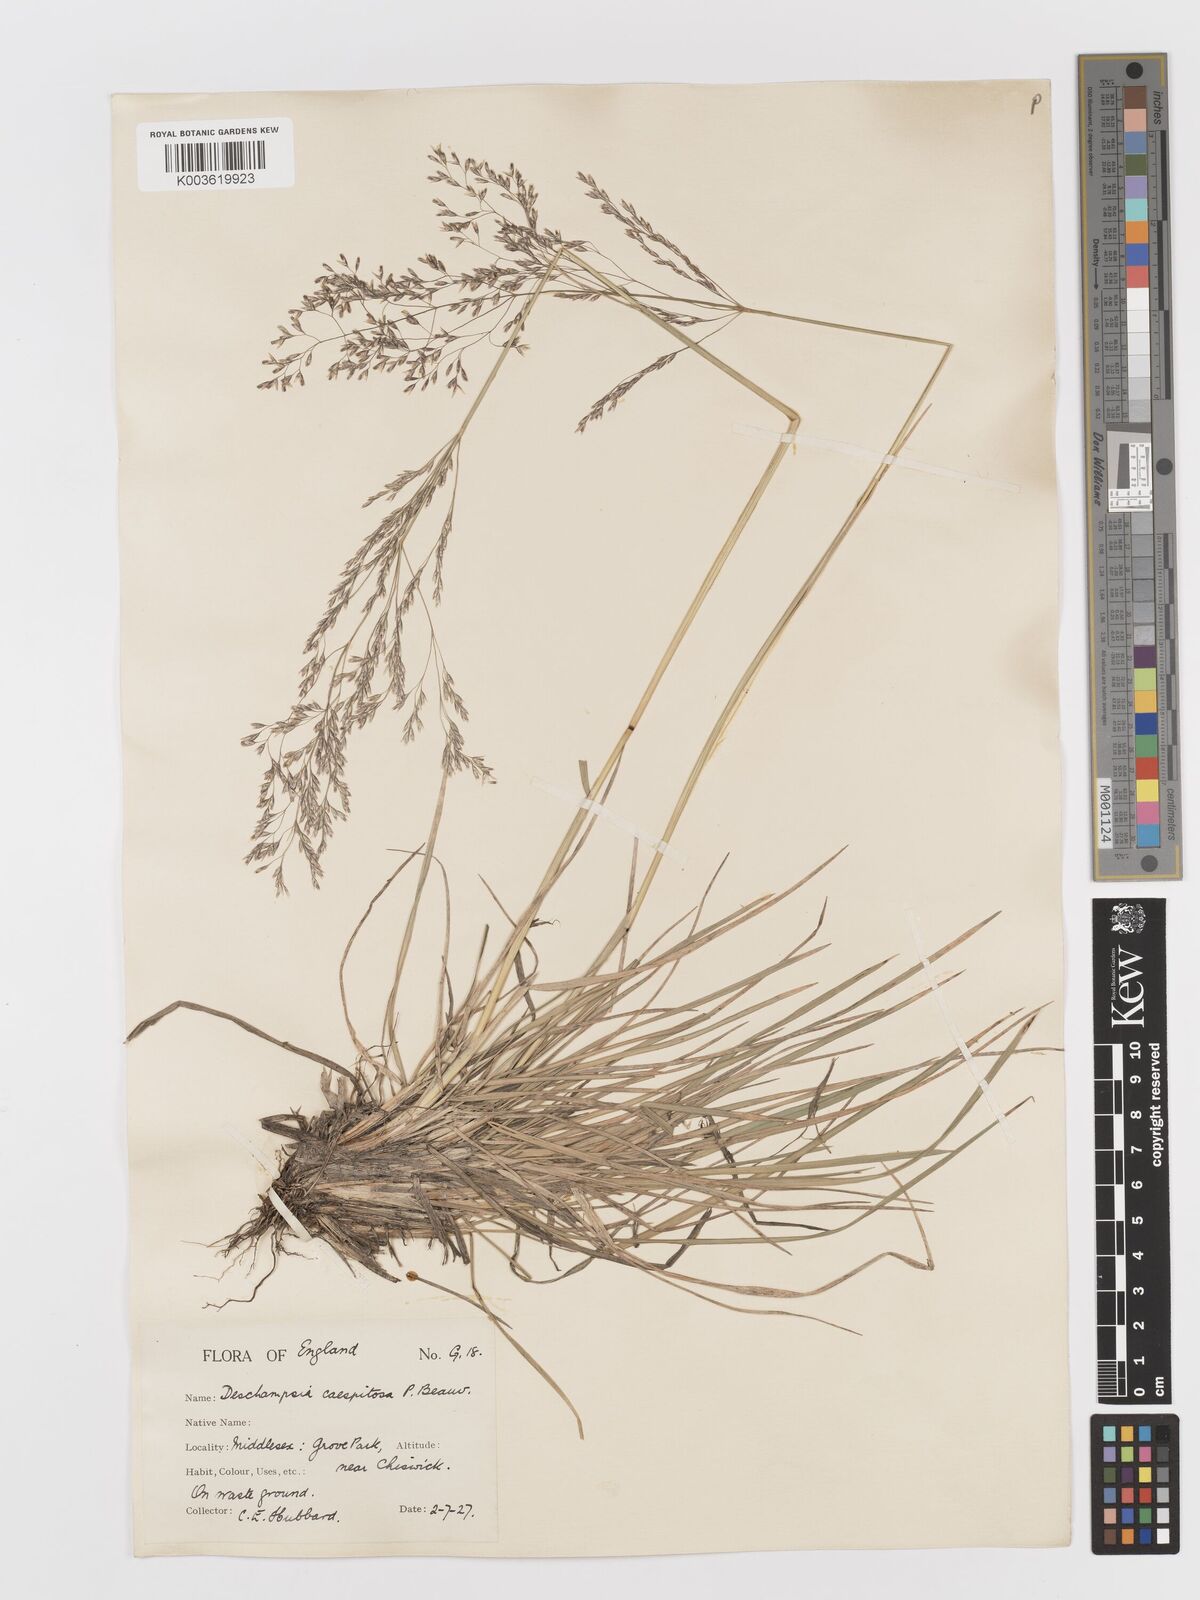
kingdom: Plantae
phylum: Tracheophyta
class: Liliopsida
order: Poales
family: Poaceae
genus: Deschampsia
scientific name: Deschampsia
